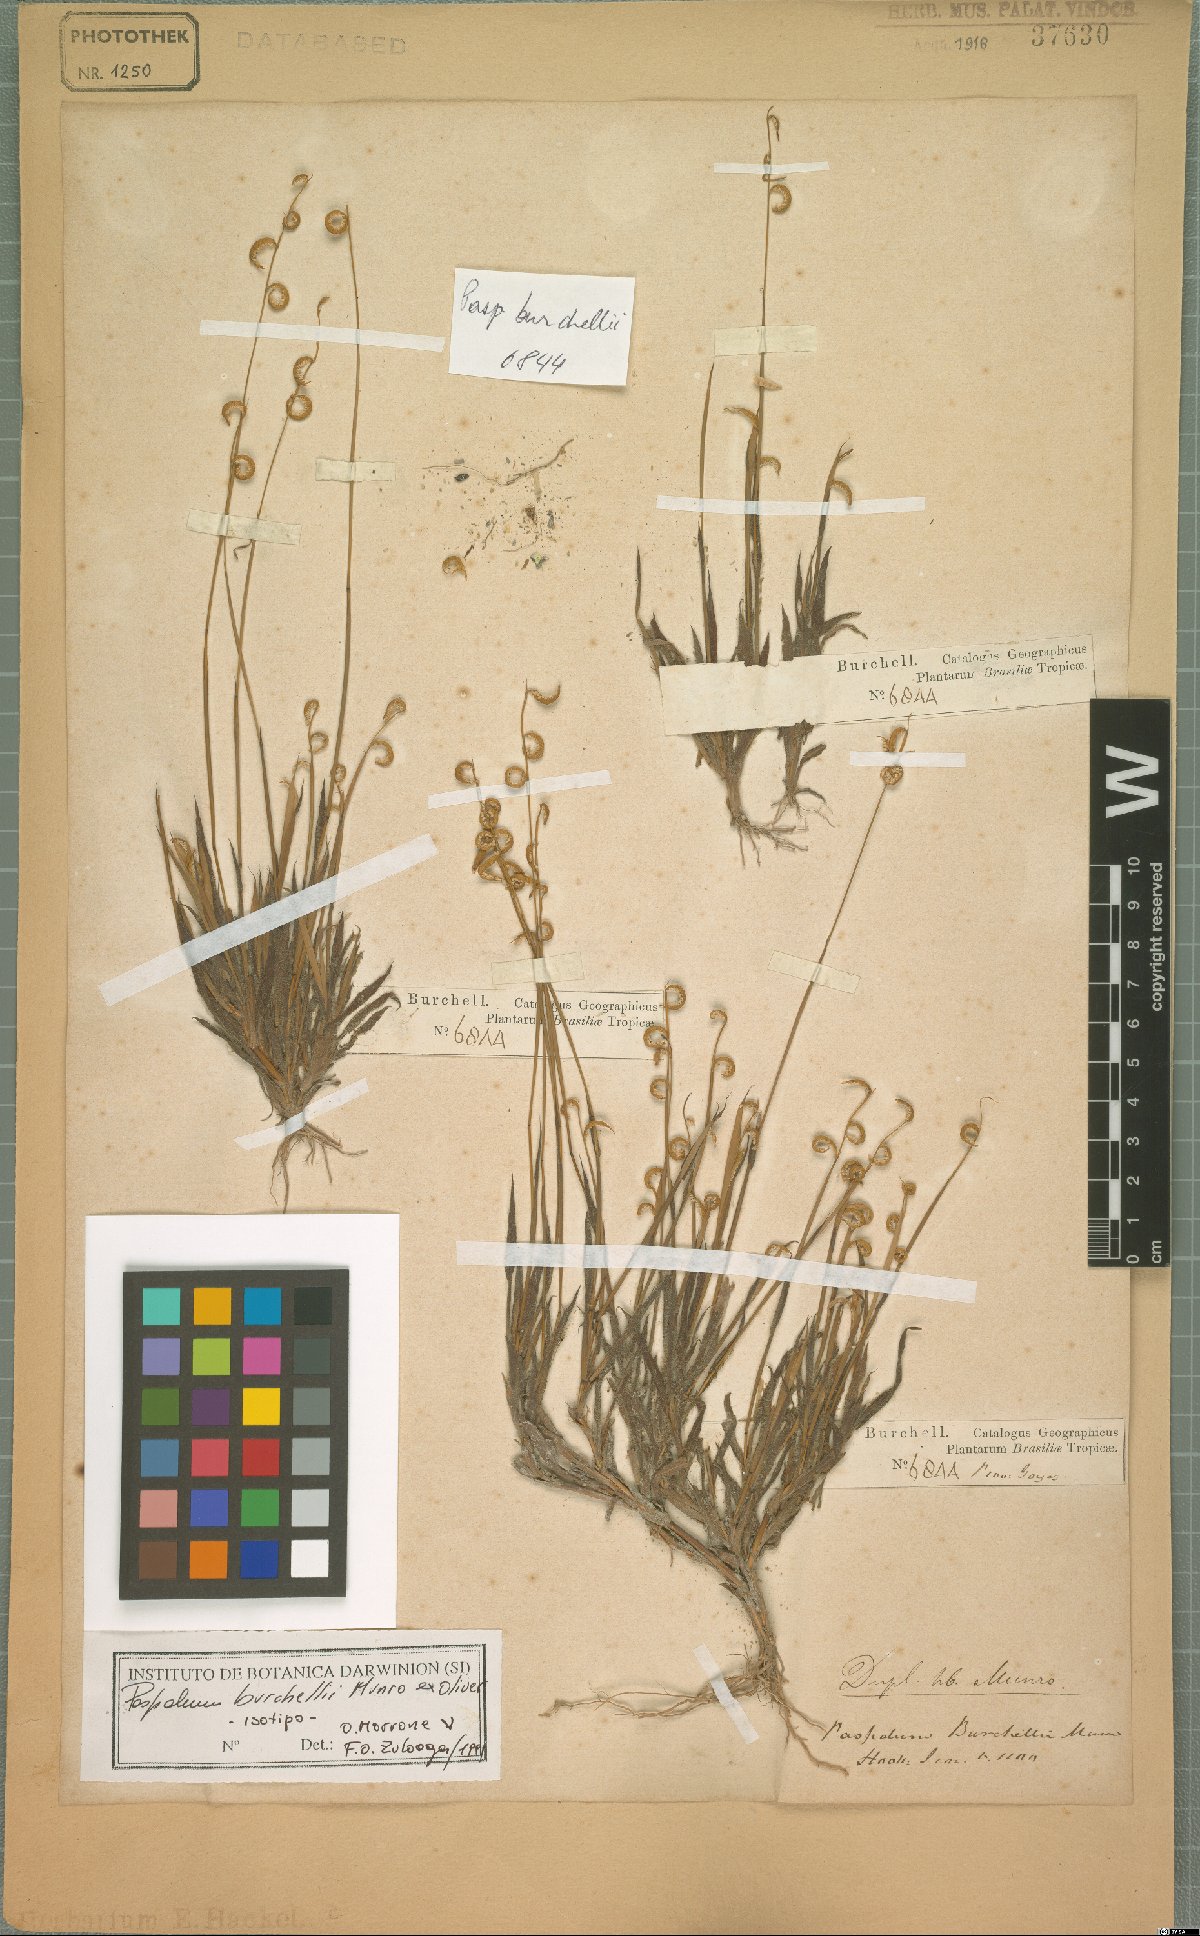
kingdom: Plantae
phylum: Tracheophyta
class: Liliopsida
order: Poales
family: Poaceae
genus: Paspalum
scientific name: Paspalum burchellii
